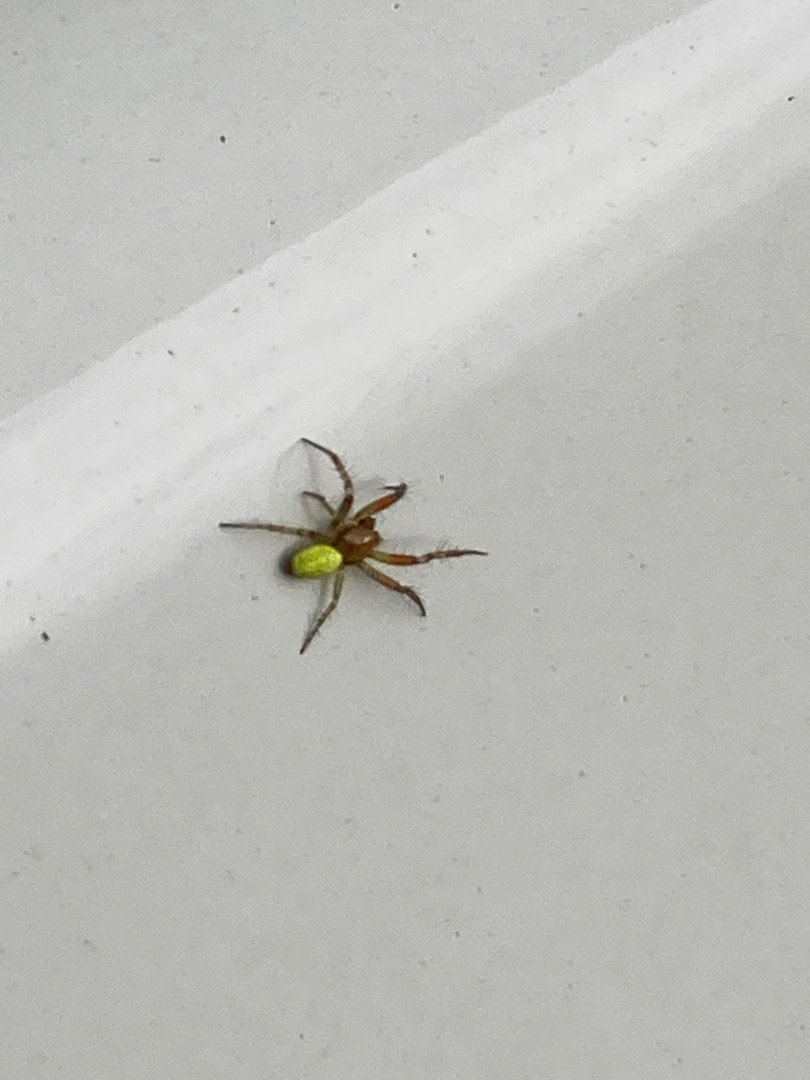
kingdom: Animalia
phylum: Arthropoda
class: Arachnida
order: Araneae
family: Araneidae
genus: Araniella
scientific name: Araniella
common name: Agurkeedderkopslægten
